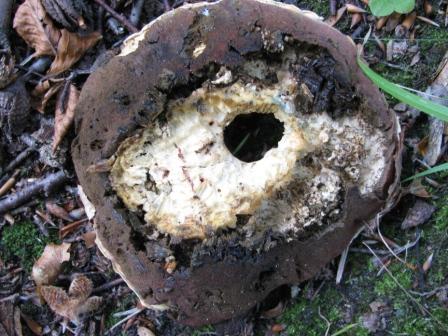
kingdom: Fungi
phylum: Basidiomycota
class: Agaricomycetes
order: Boletales
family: Boletaceae
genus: Rubroboletus
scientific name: Rubroboletus satanas
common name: Satans rørhat
